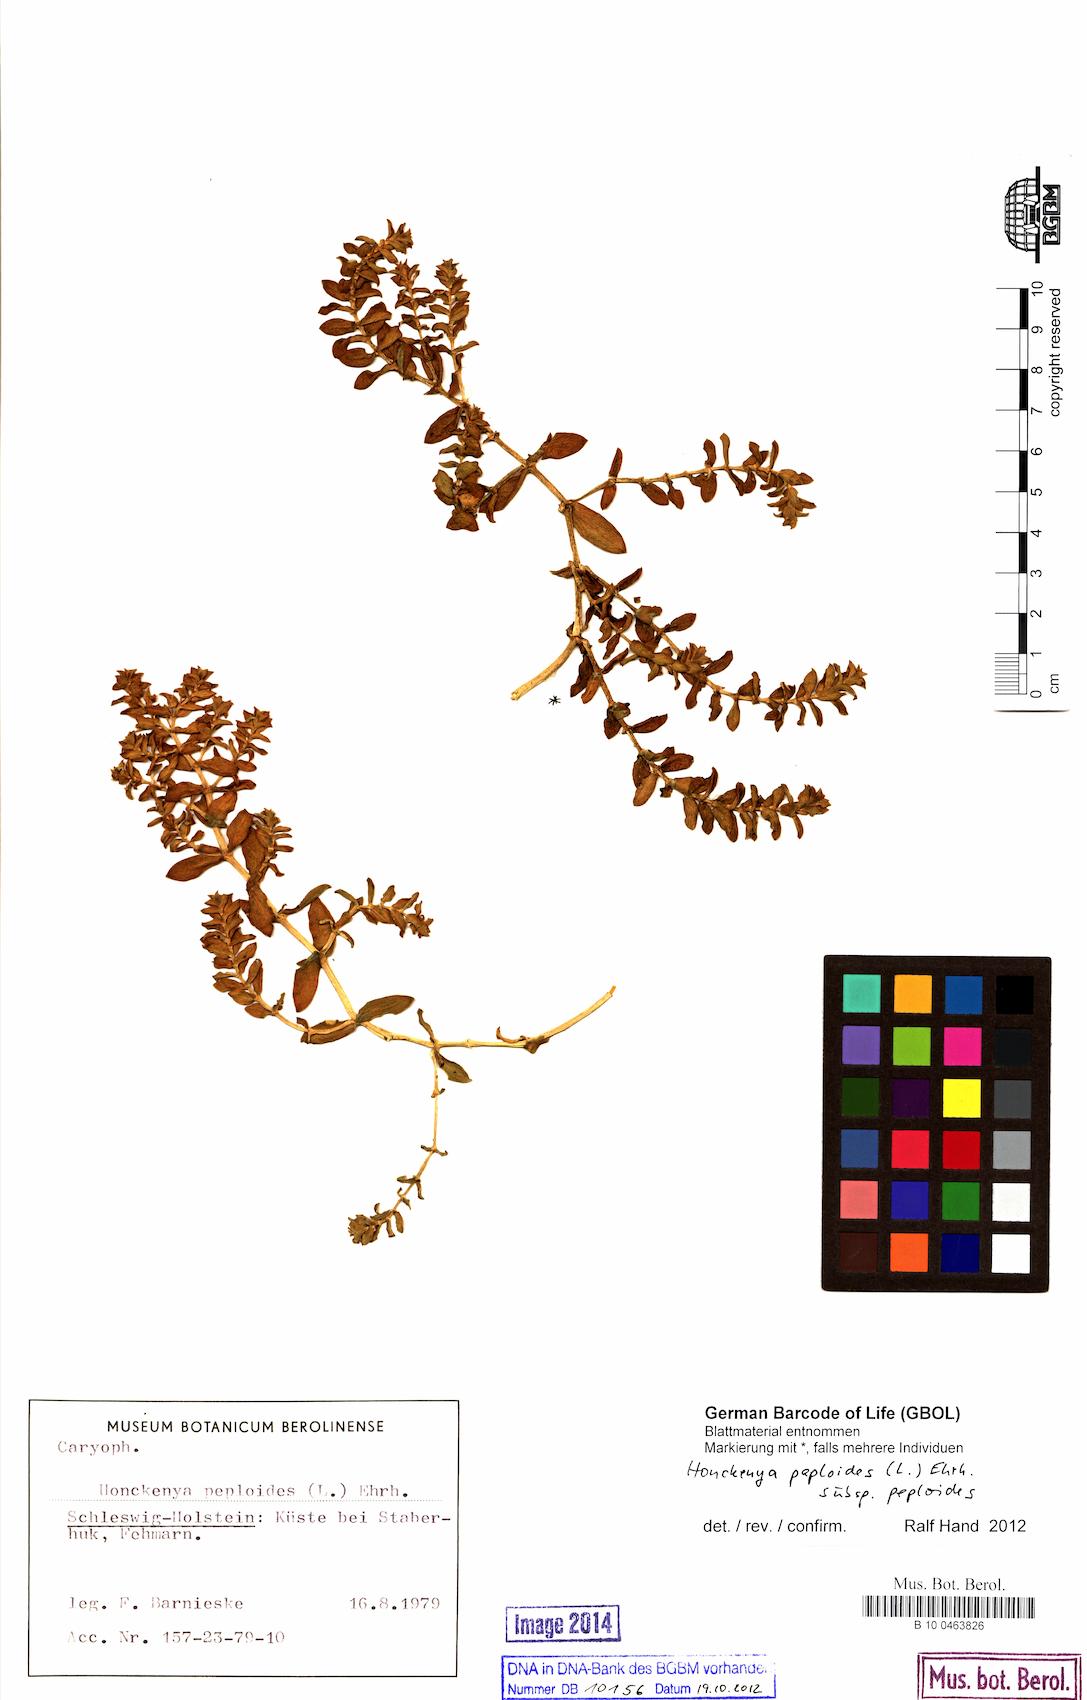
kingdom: Plantae
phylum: Tracheophyta
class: Magnoliopsida
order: Caryophyllales
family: Caryophyllaceae
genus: Honckenya
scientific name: Honckenya peploides
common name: Sea sandwort
